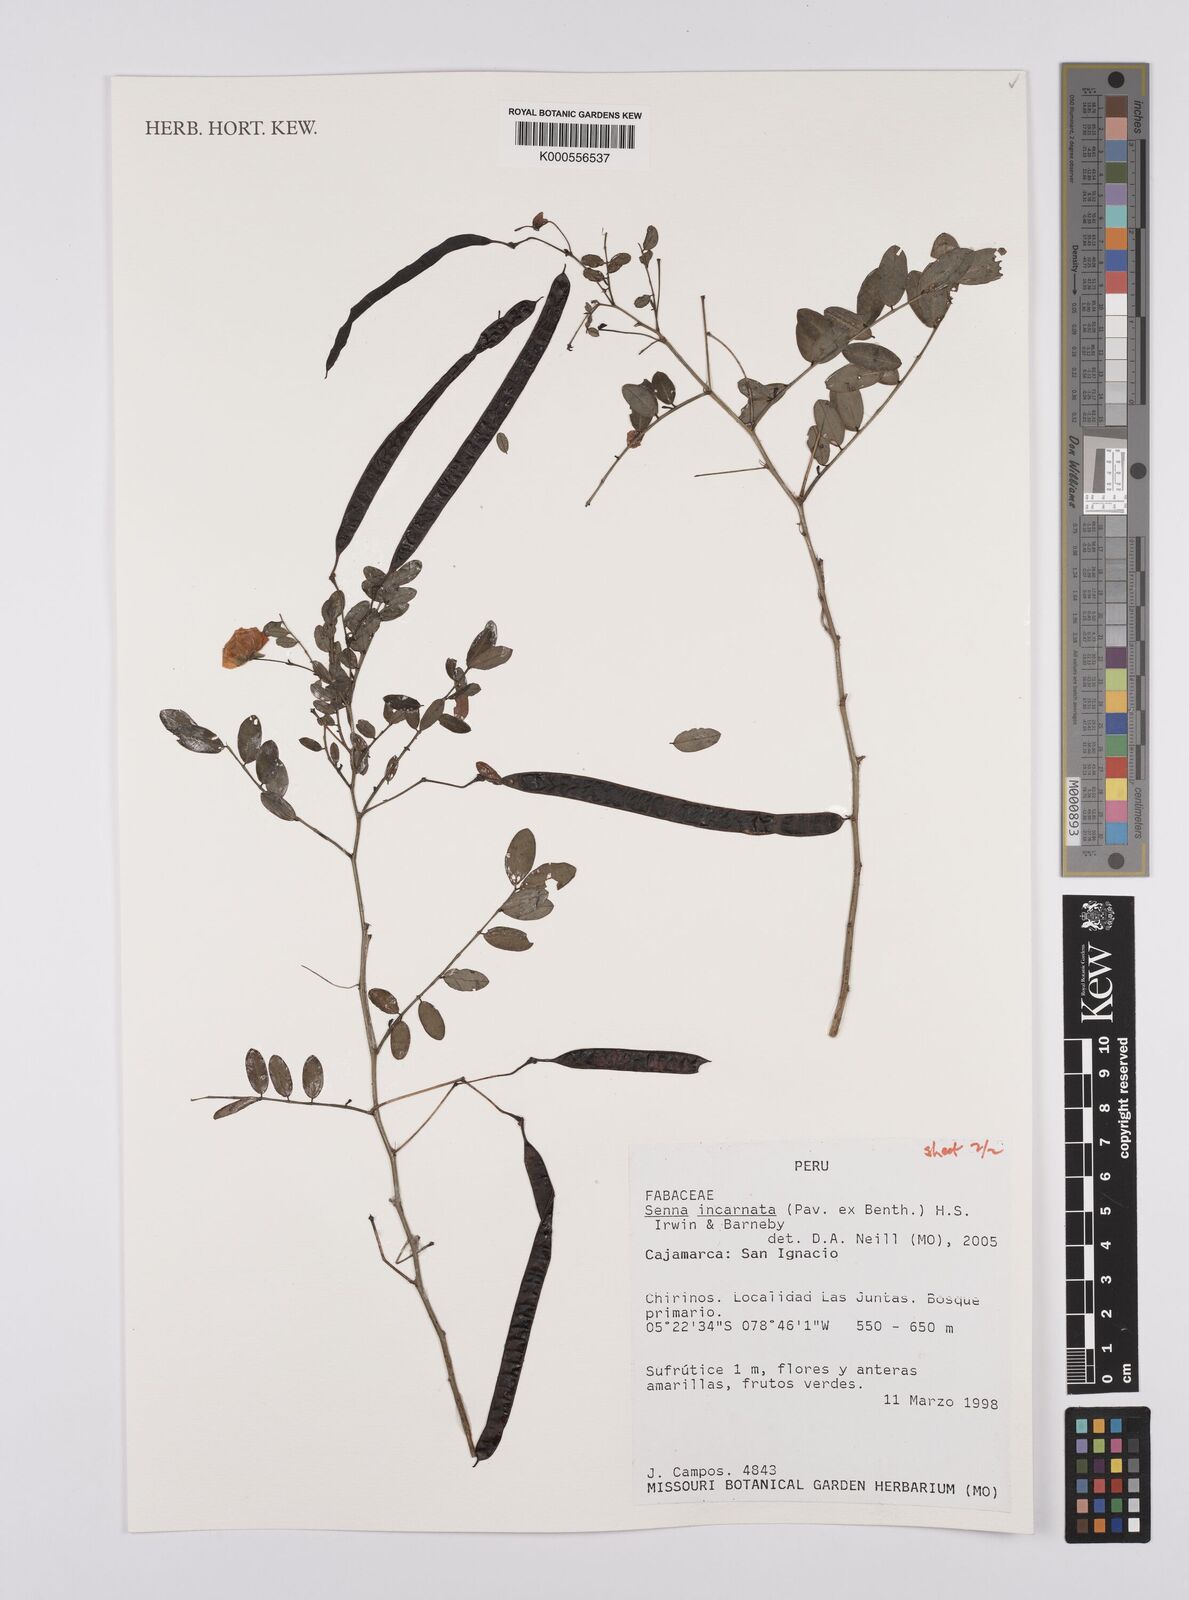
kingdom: Plantae
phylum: Tracheophyta
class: Magnoliopsida
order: Fabales
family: Fabaceae
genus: Senna
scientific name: Senna incarnata
